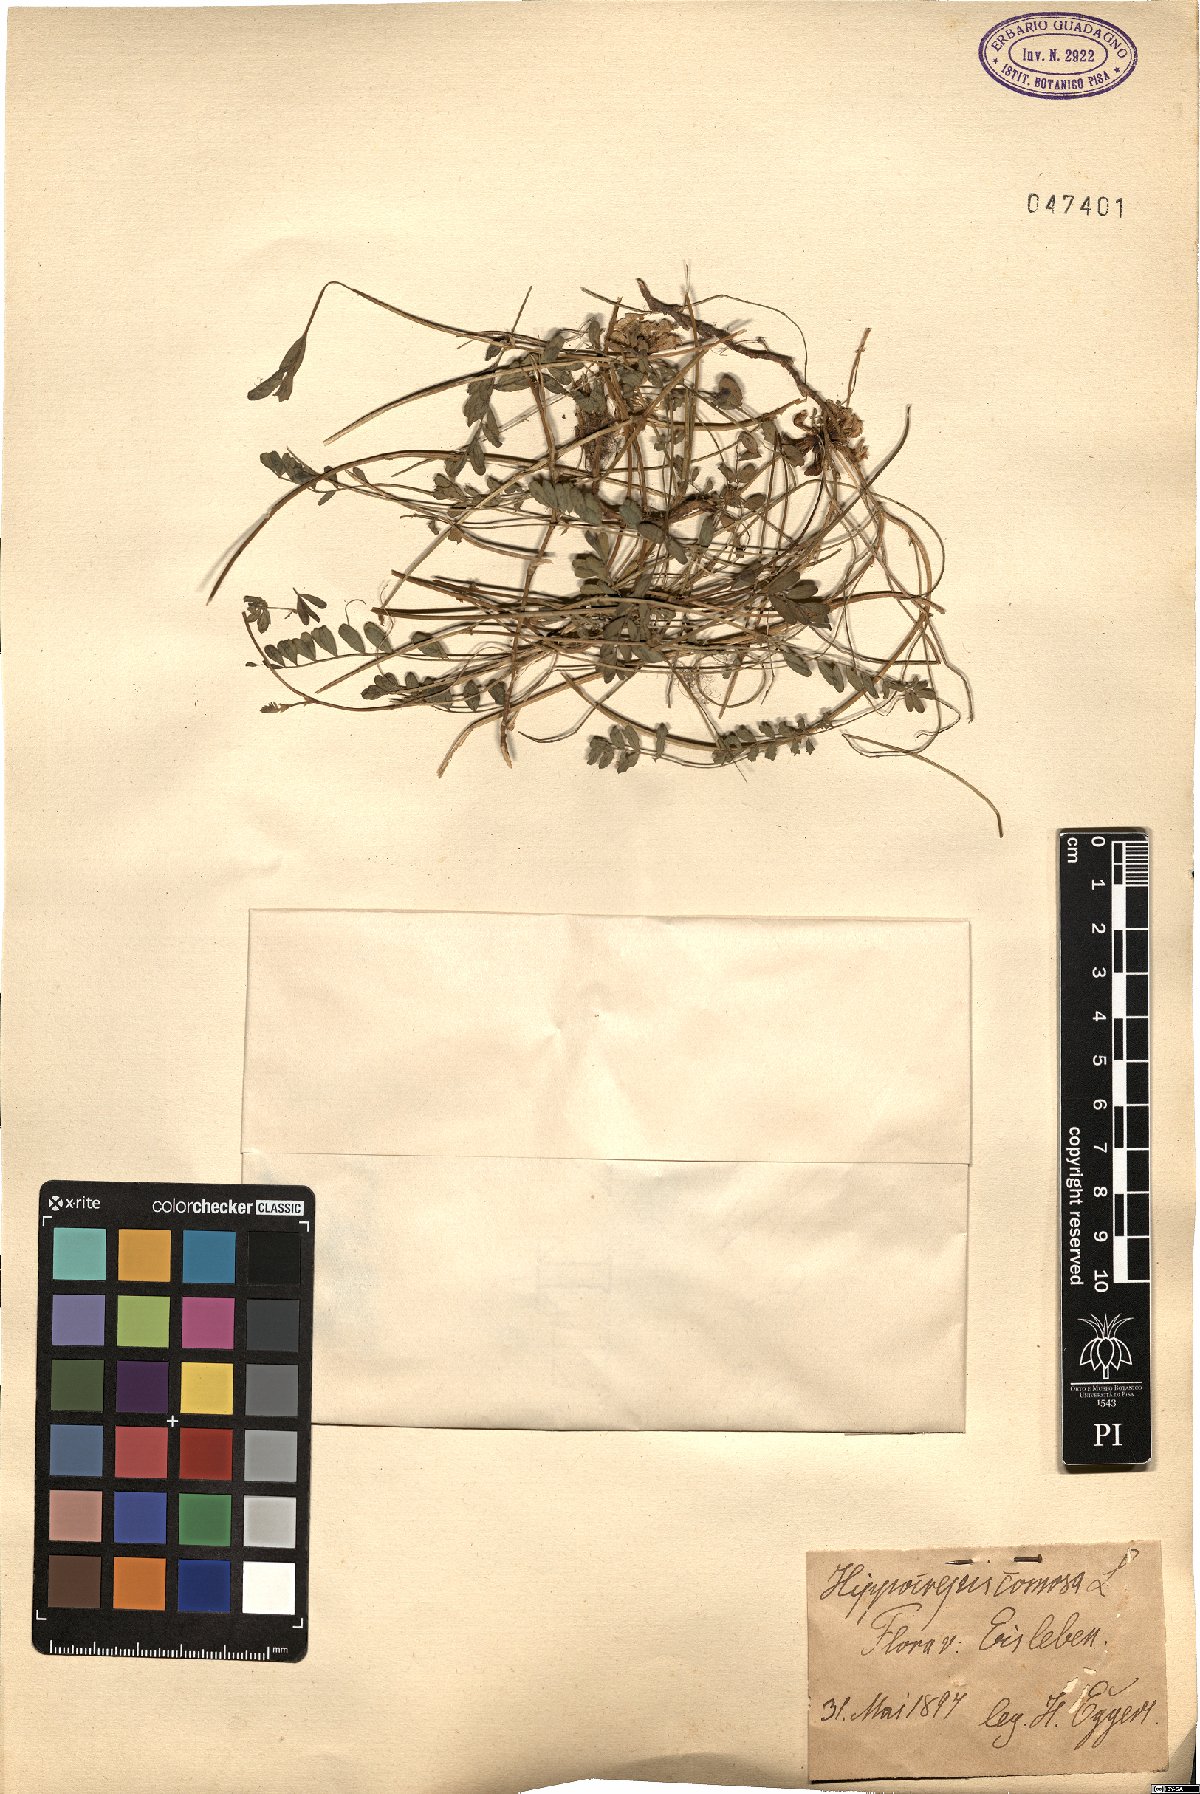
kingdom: Plantae
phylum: Tracheophyta
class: Magnoliopsida
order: Fabales
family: Fabaceae
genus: Hippocrepis
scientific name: Hippocrepis comosa
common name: Horseshoe vetch
